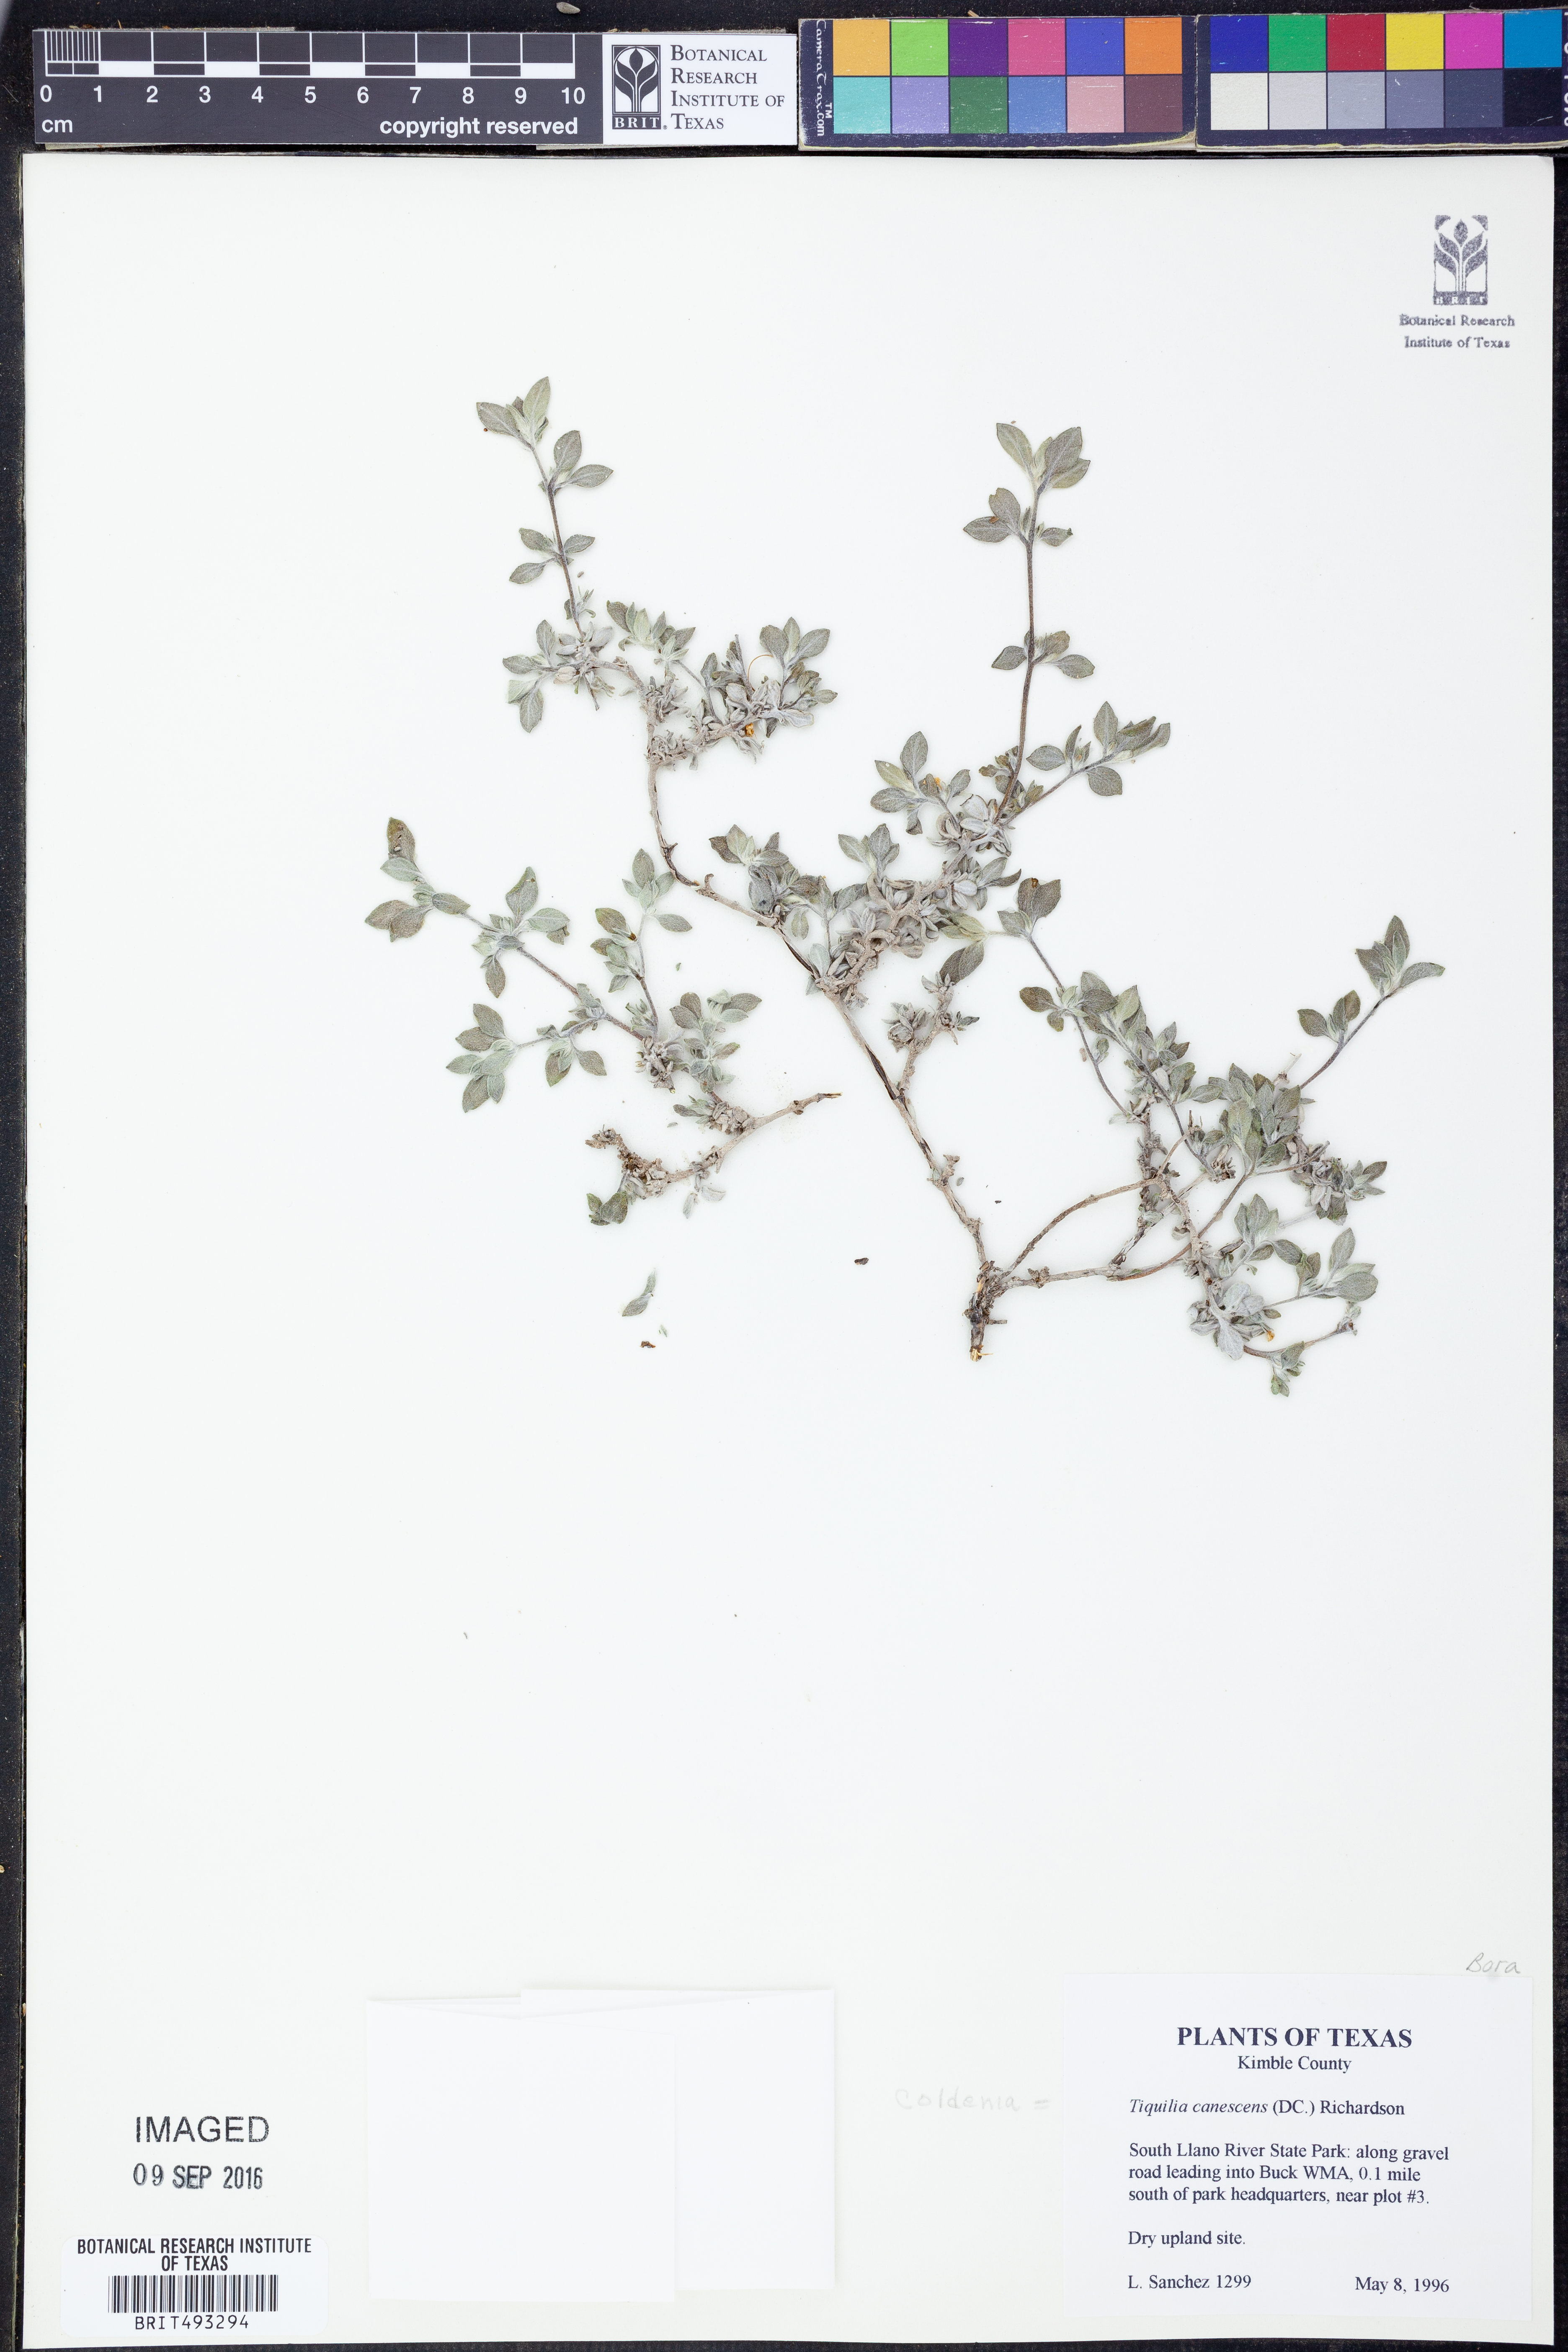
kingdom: Plantae
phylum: Tracheophyta
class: Magnoliopsida
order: Boraginales
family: Ehretiaceae
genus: Tiquilia
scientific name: Tiquilia canescens
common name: Hairy tiquilia
